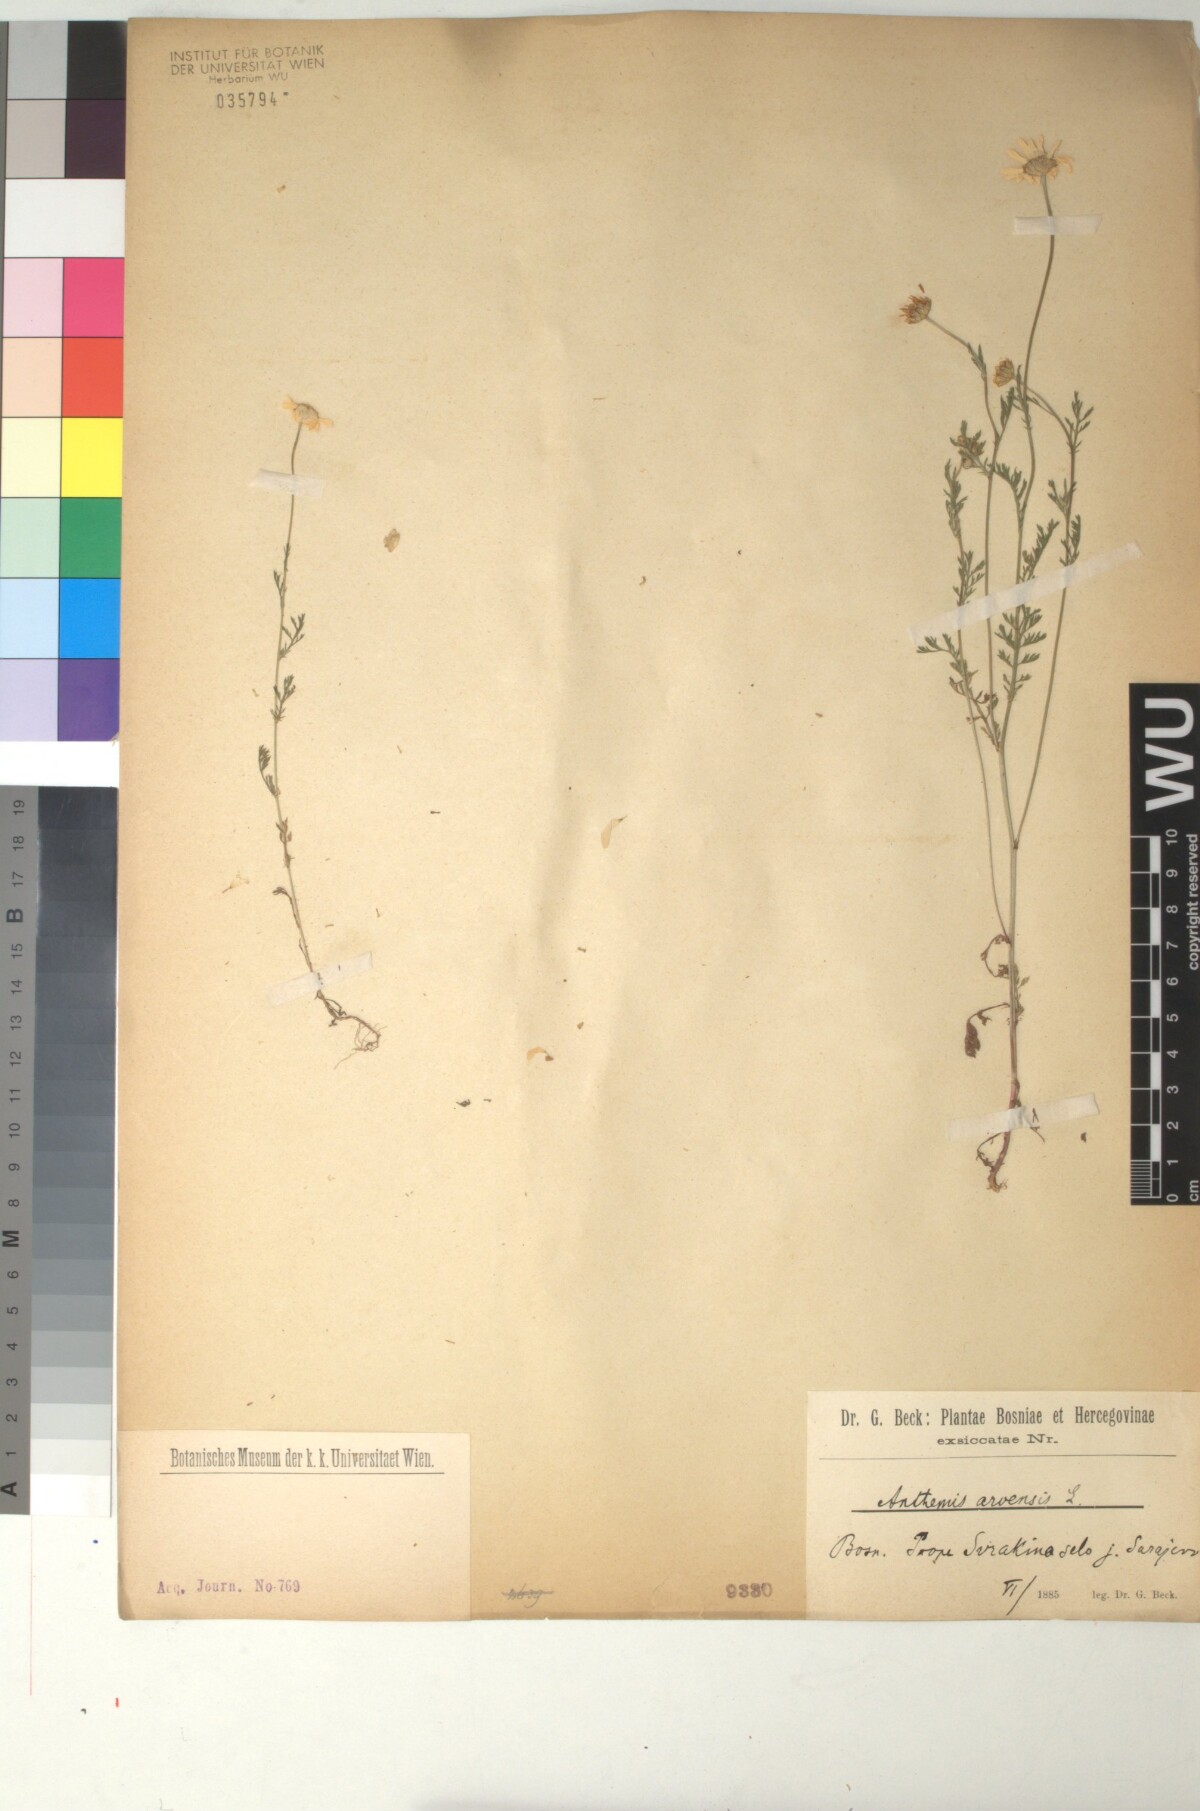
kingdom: Plantae
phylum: Tracheophyta
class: Magnoliopsida
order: Asterales
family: Asteraceae
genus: Anthemis
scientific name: Anthemis arvensis
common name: Corn chamomile
